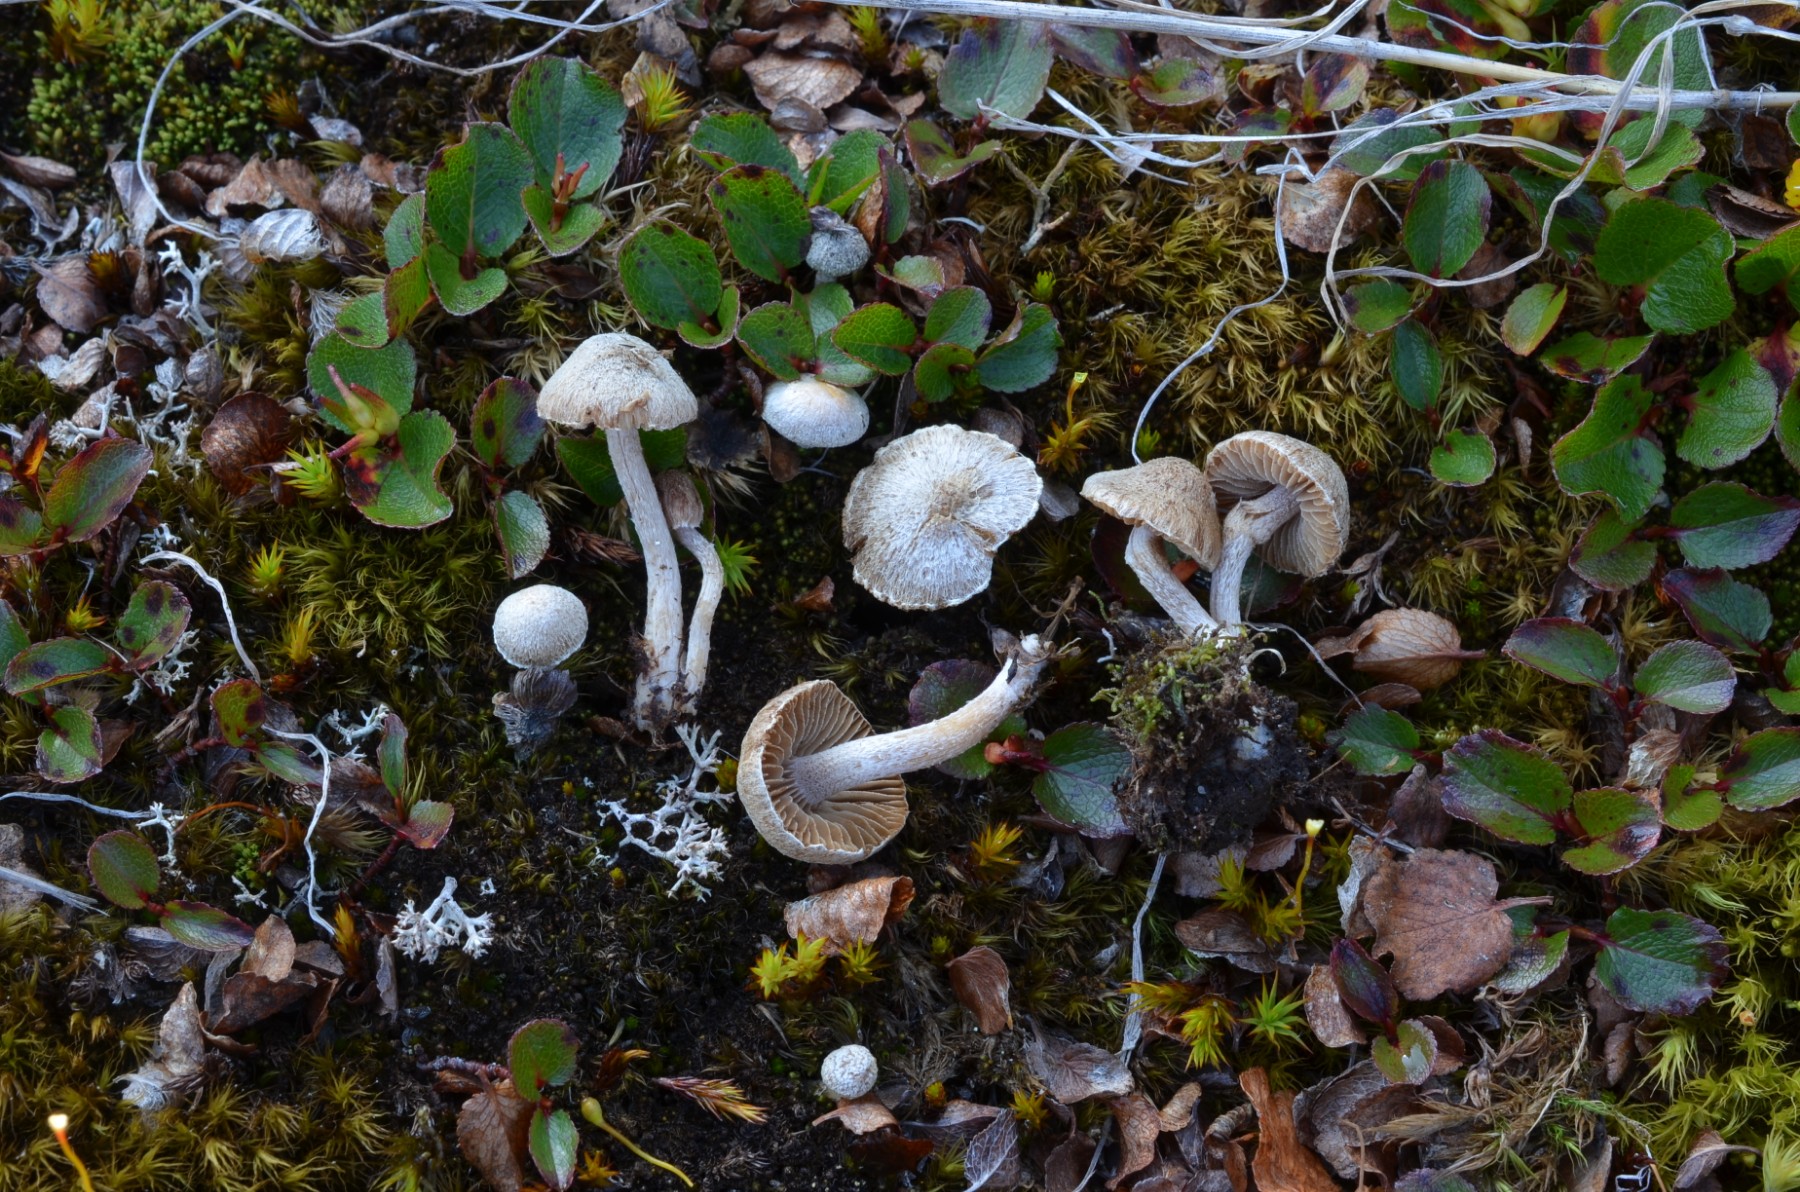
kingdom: Fungi
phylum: Basidiomycota
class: Agaricomycetes
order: Agaricales
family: Inocybaceae
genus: Inocybe
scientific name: Inocybe
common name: trævlhat
